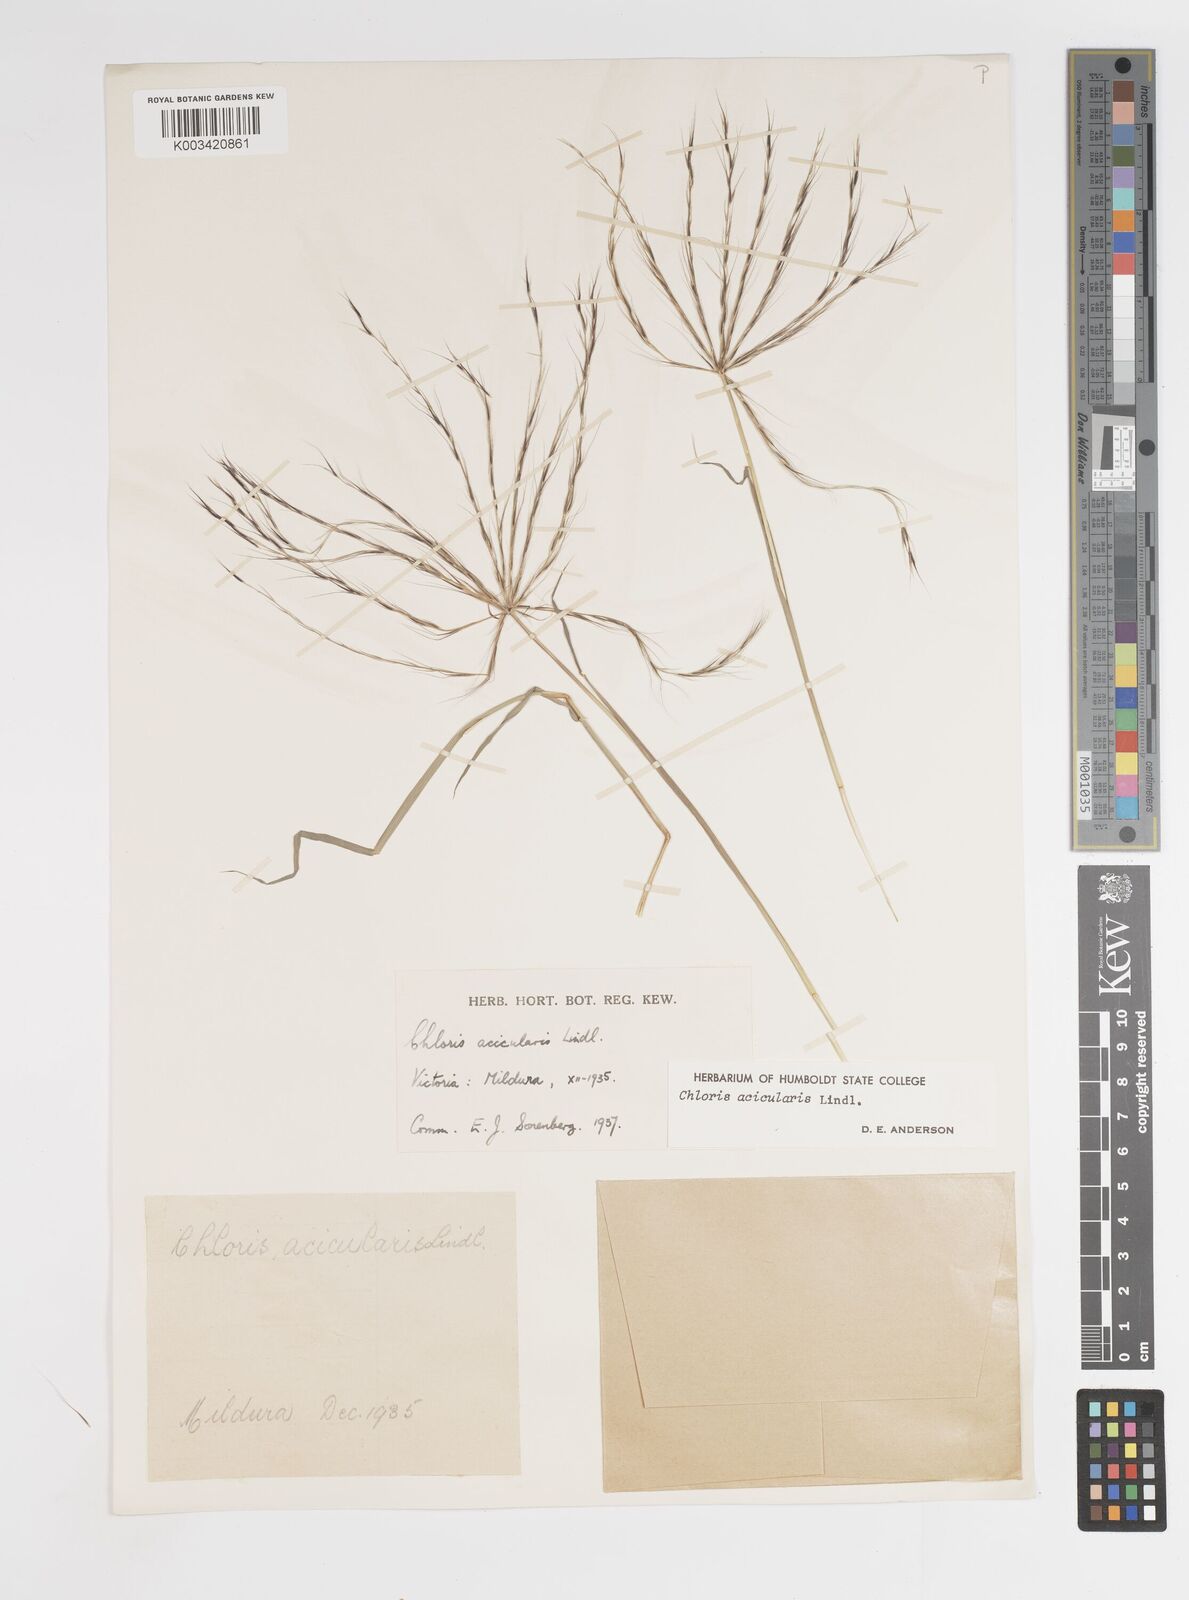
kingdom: Plantae
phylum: Tracheophyta
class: Liliopsida
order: Poales
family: Poaceae
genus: Enteropogon
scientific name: Enteropogon acicularis
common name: Curly windmill grass
